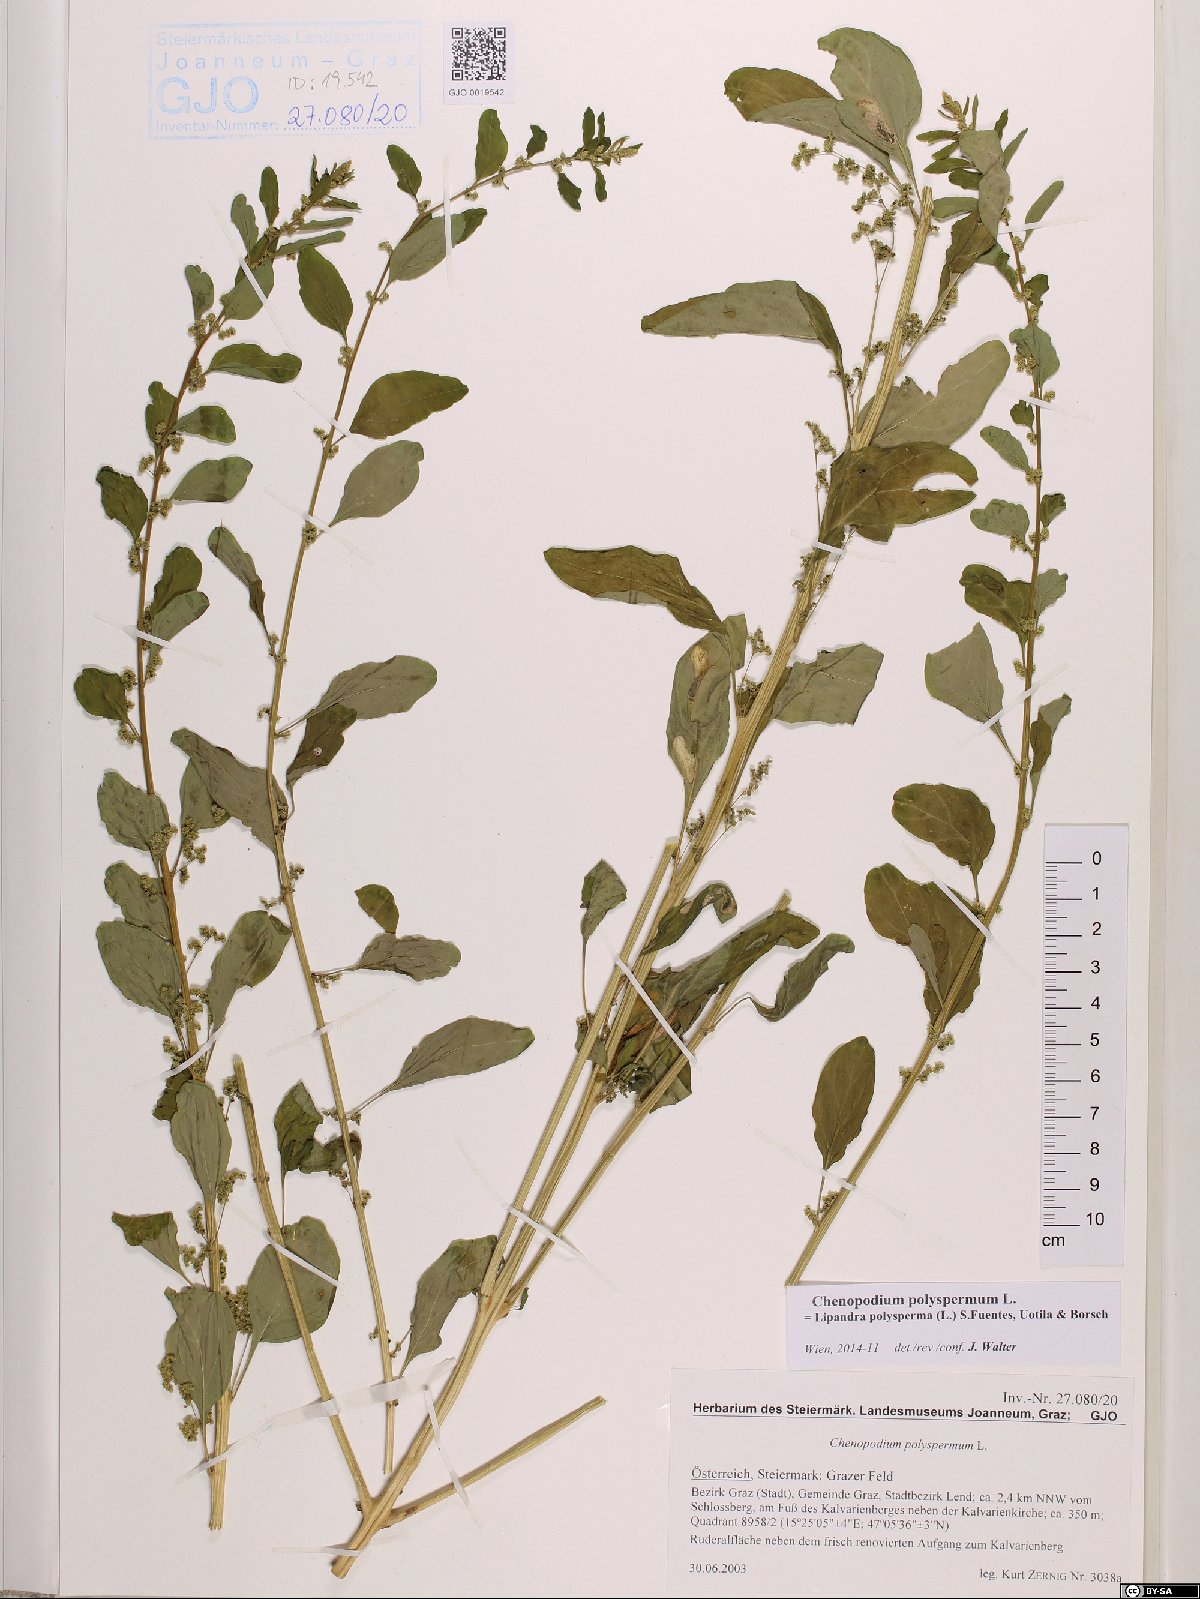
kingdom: Plantae
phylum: Tracheophyta
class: Magnoliopsida
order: Caryophyllales
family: Amaranthaceae
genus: Lipandra
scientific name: Lipandra polysperma
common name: Many-seed goosefoot
